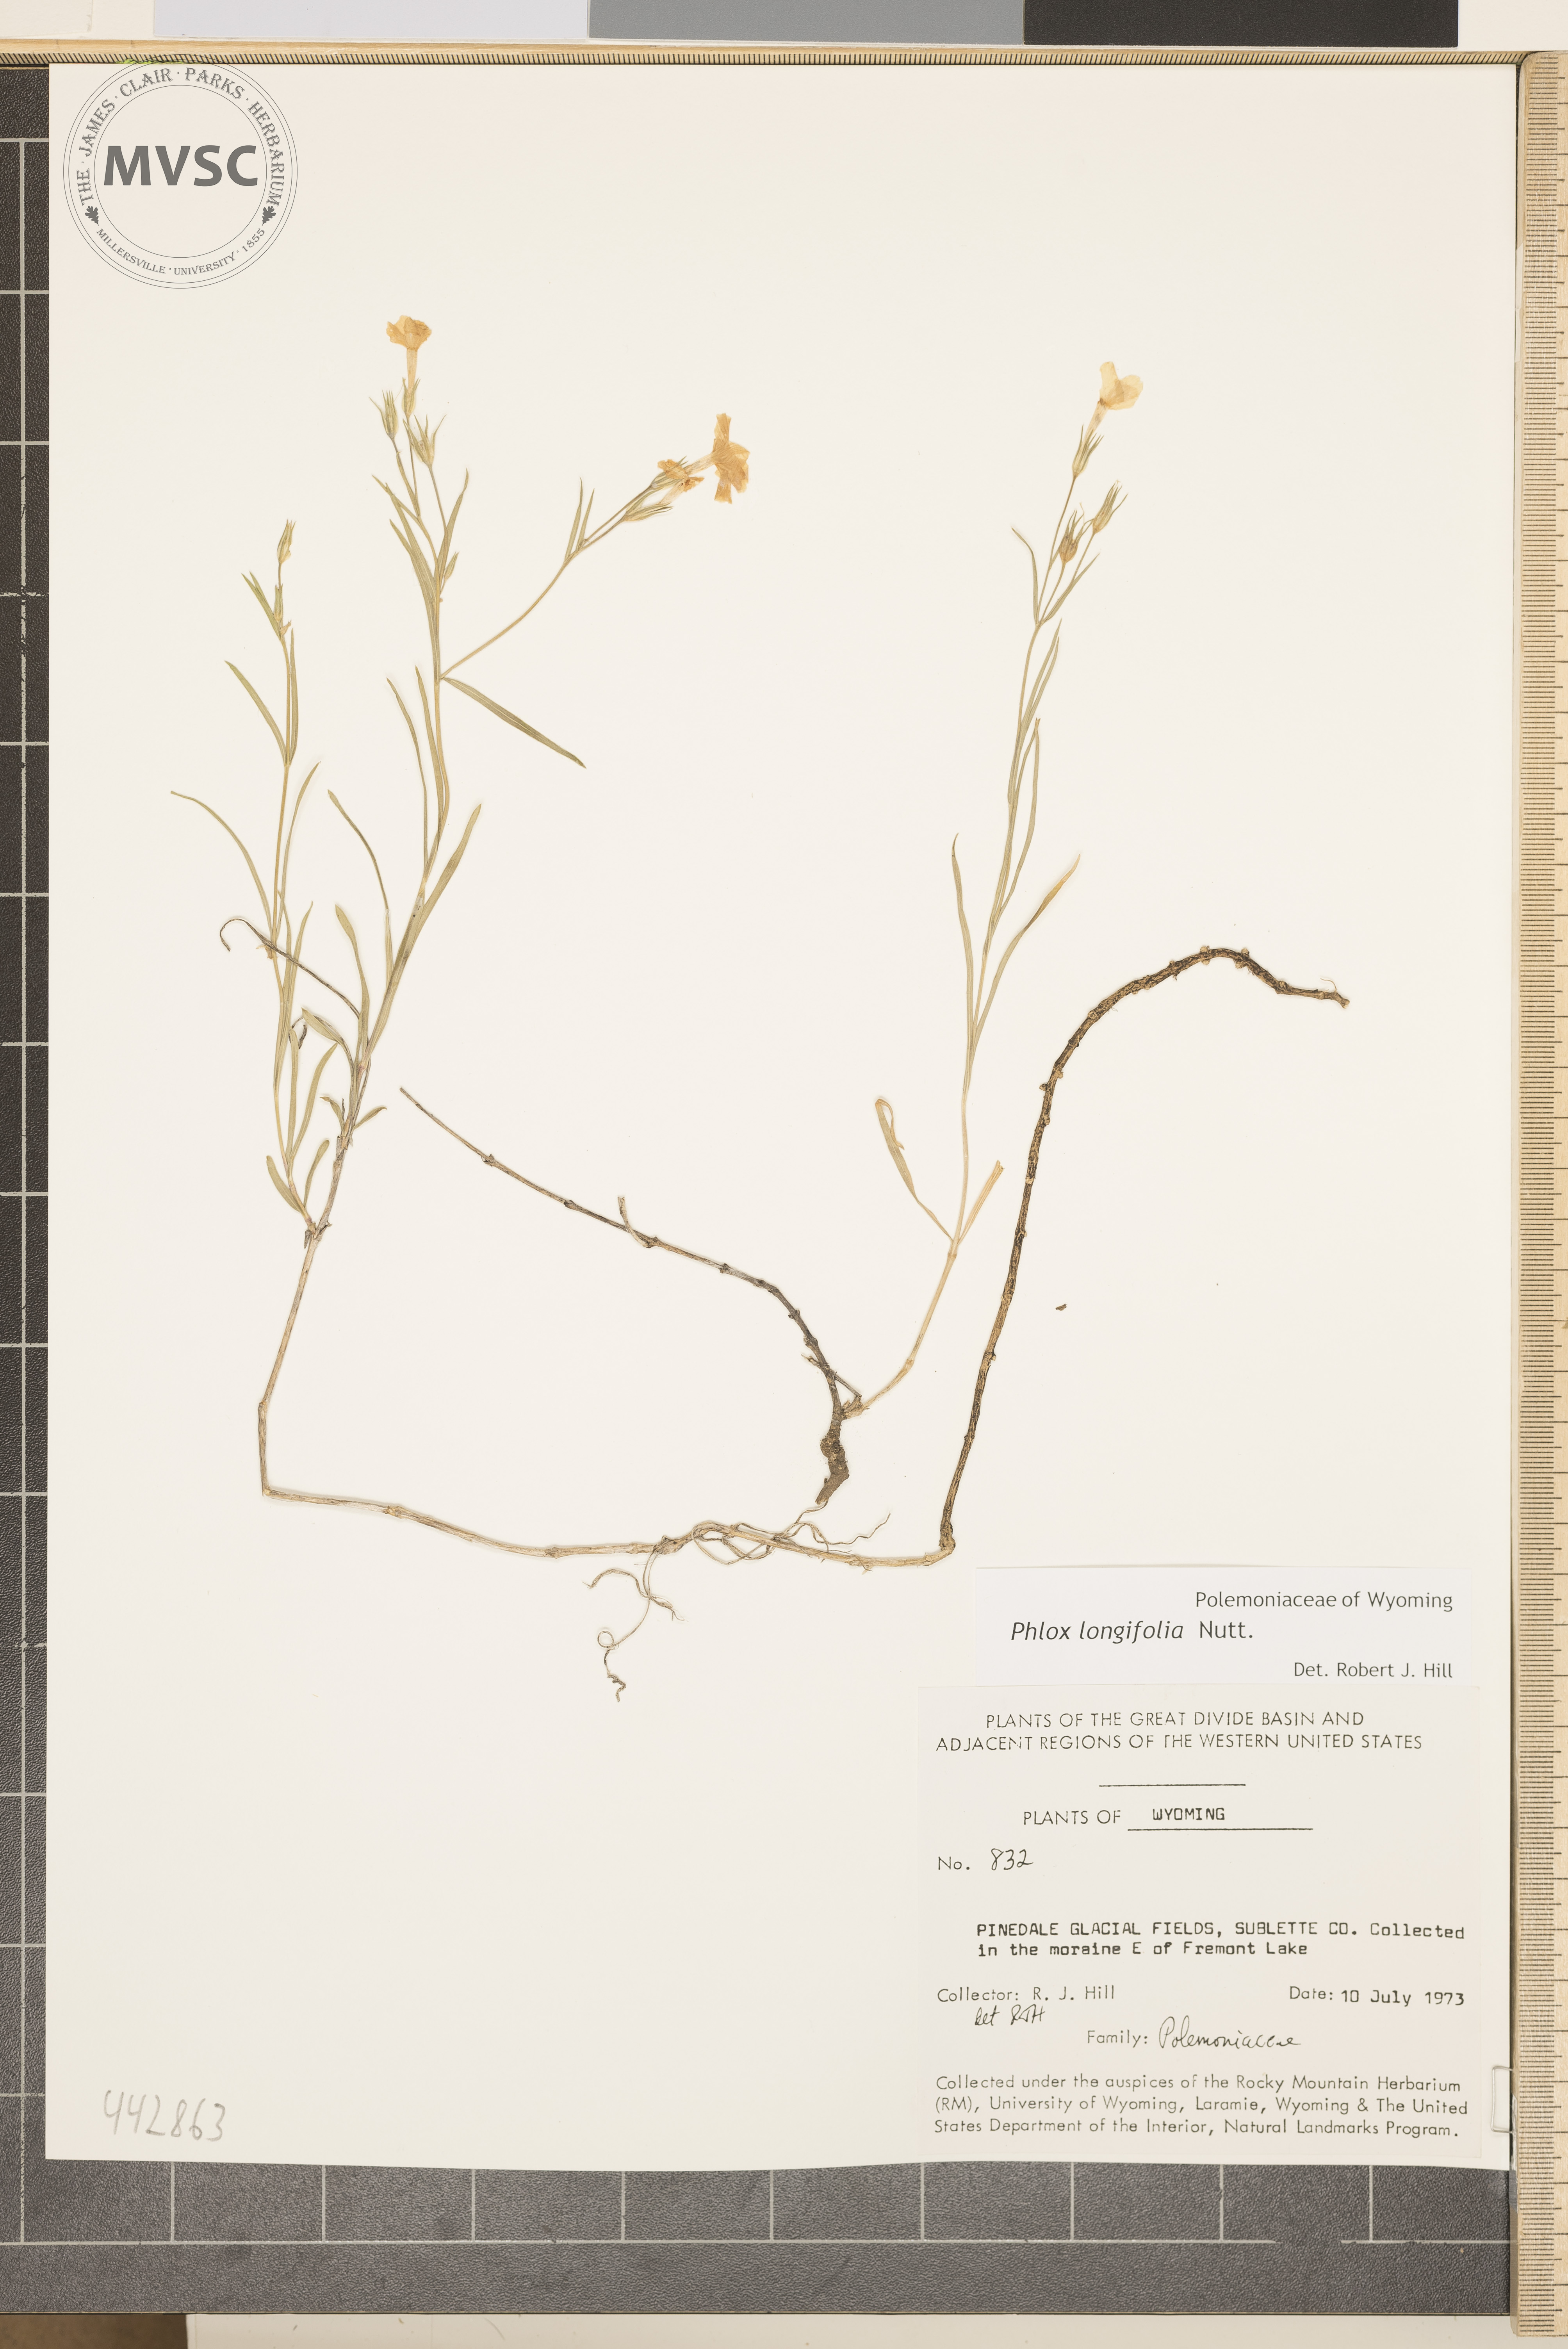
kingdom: Plantae
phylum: Tracheophyta
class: Magnoliopsida
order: Ericales
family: Polemoniaceae
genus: Phlox
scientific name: Phlox longifolia
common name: Longleaf phlox
